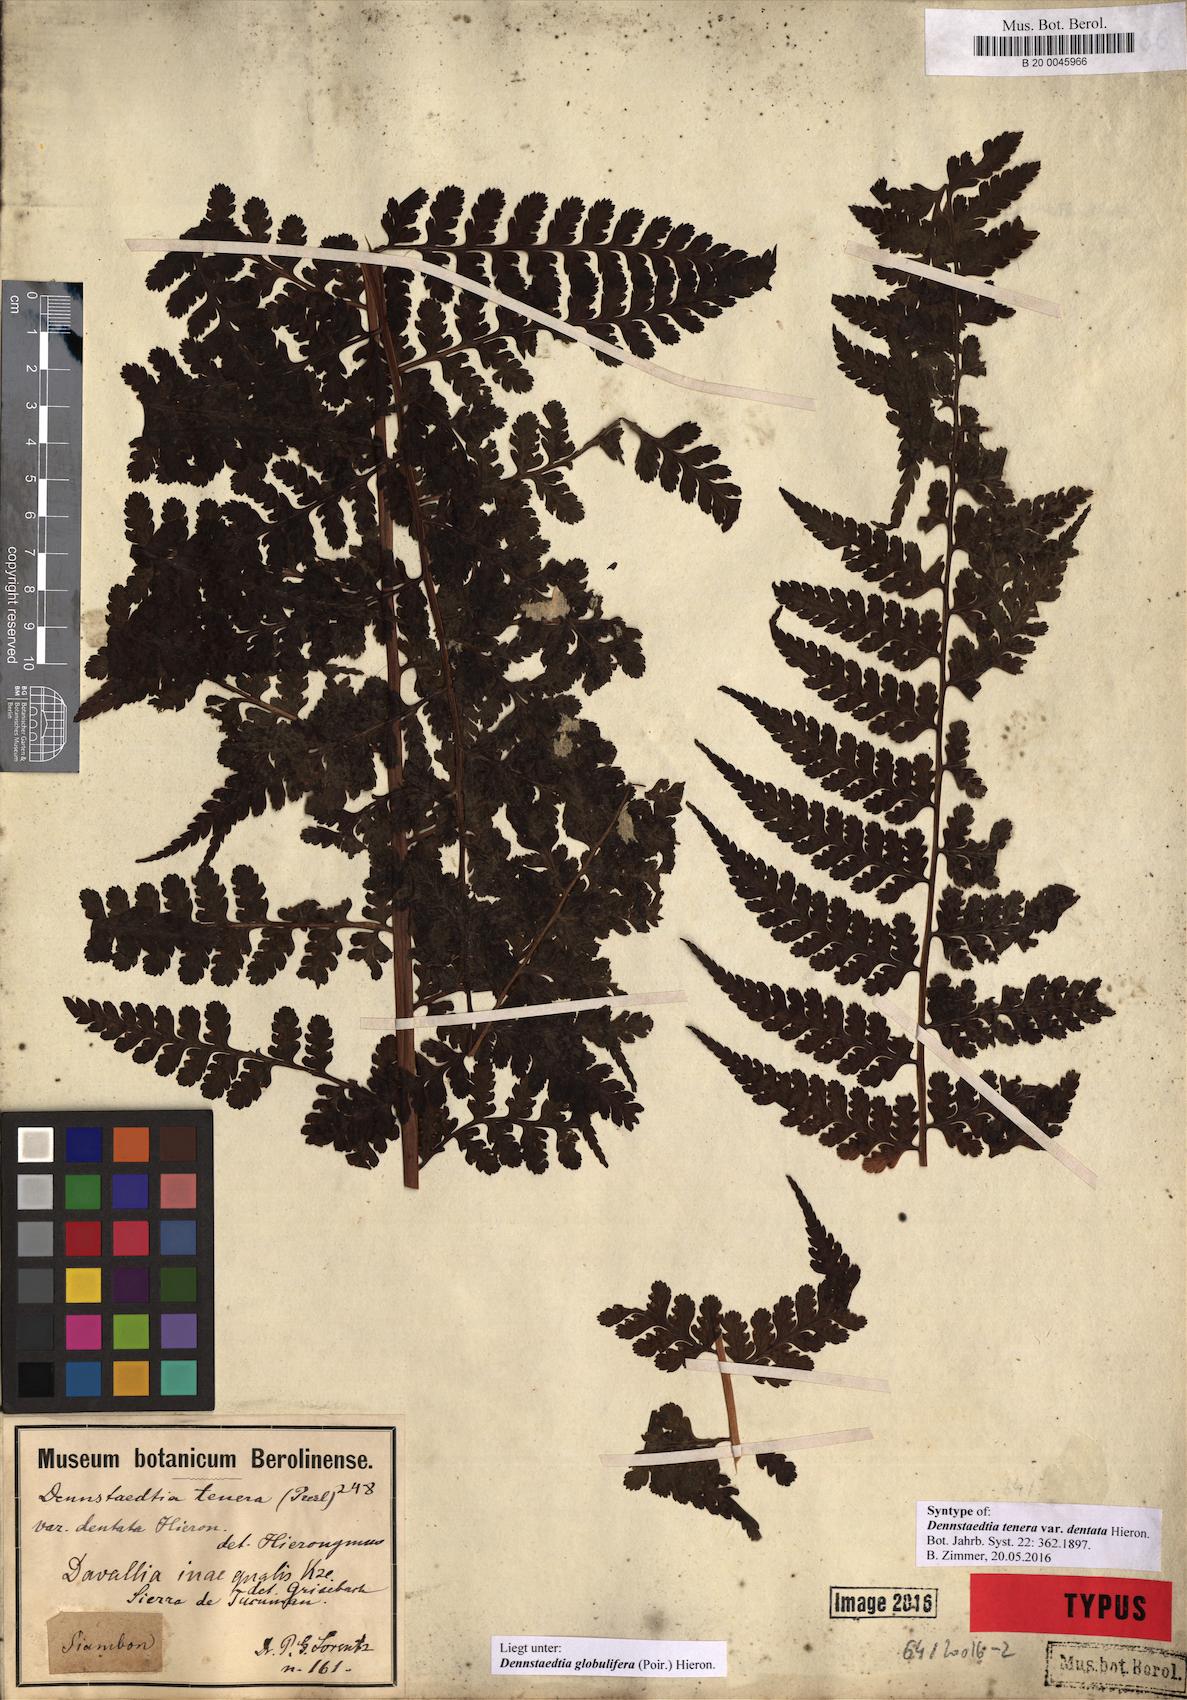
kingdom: Plantae
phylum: Tracheophyta
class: Polypodiopsida
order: Polypodiales
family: Dennstaedtiaceae
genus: Mucura
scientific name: Mucura globulifera
